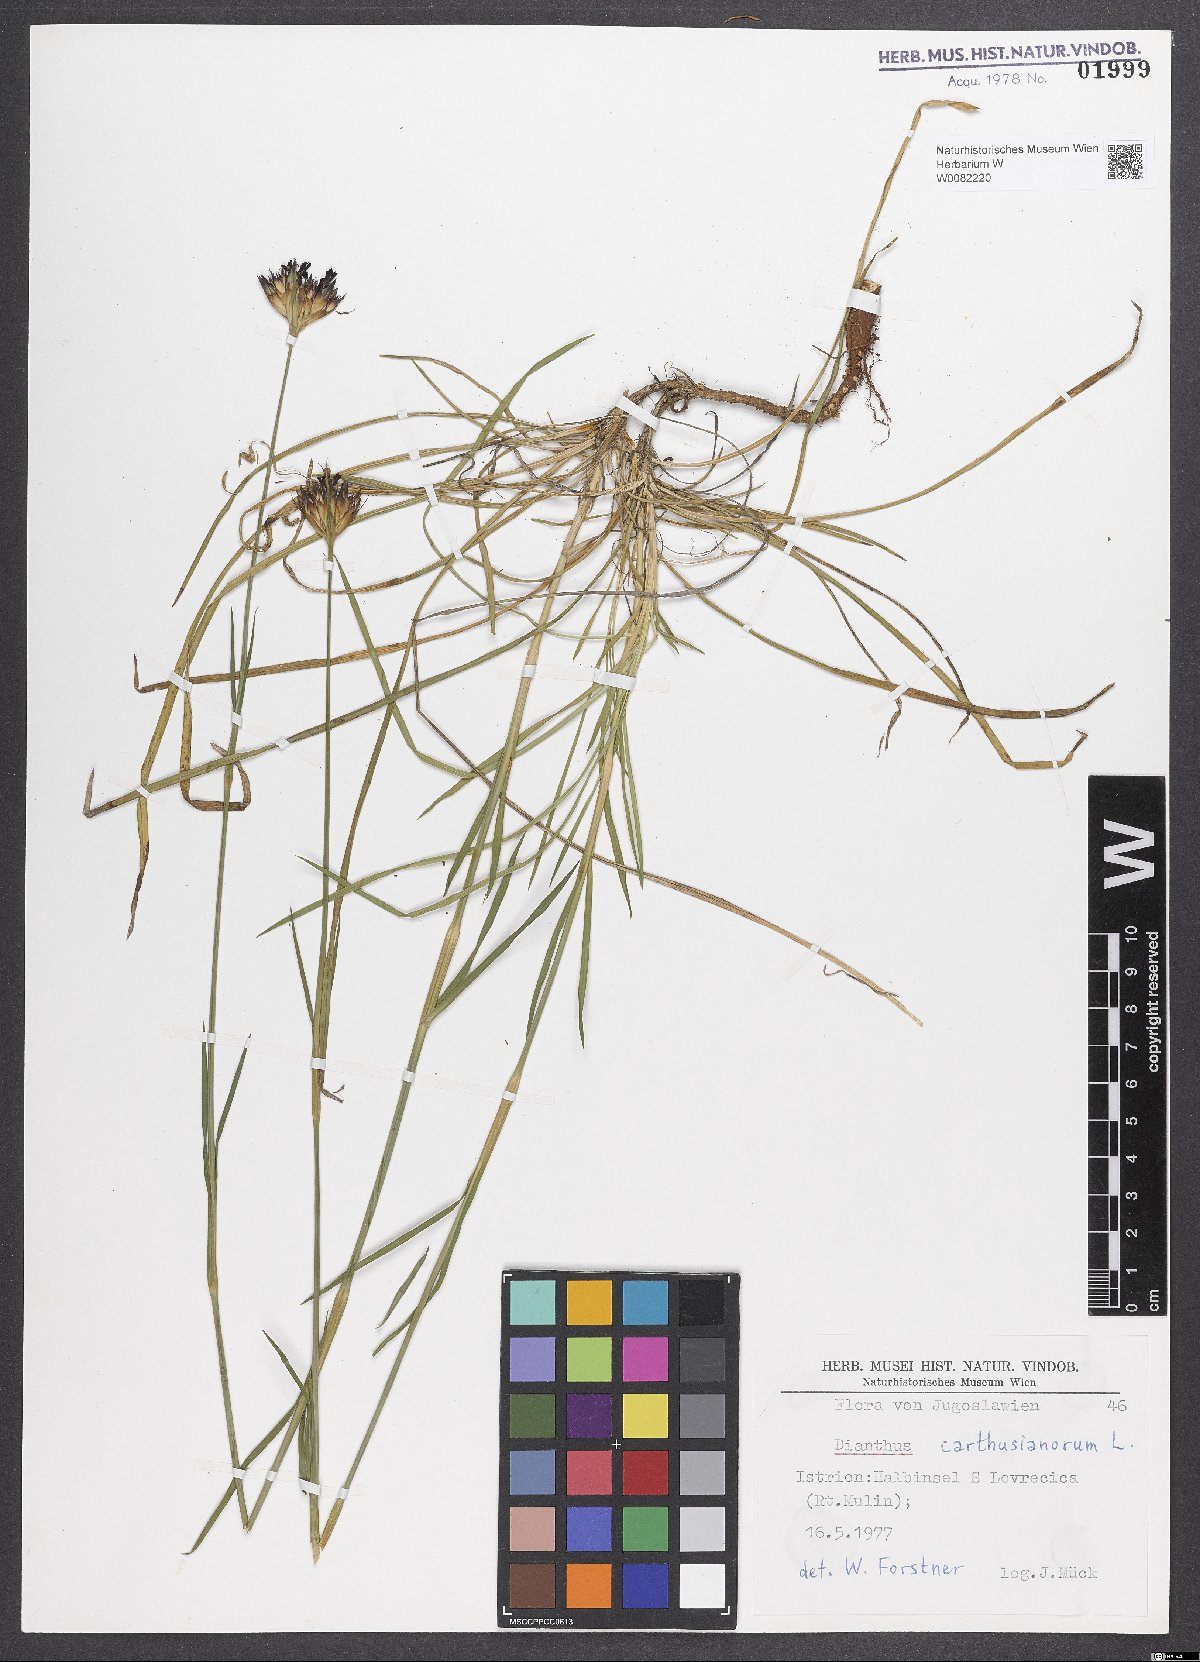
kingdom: Plantae
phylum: Tracheophyta
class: Magnoliopsida
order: Caryophyllales
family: Caryophyllaceae
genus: Dianthus
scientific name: Dianthus carthusianorum
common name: Carthusian pink
